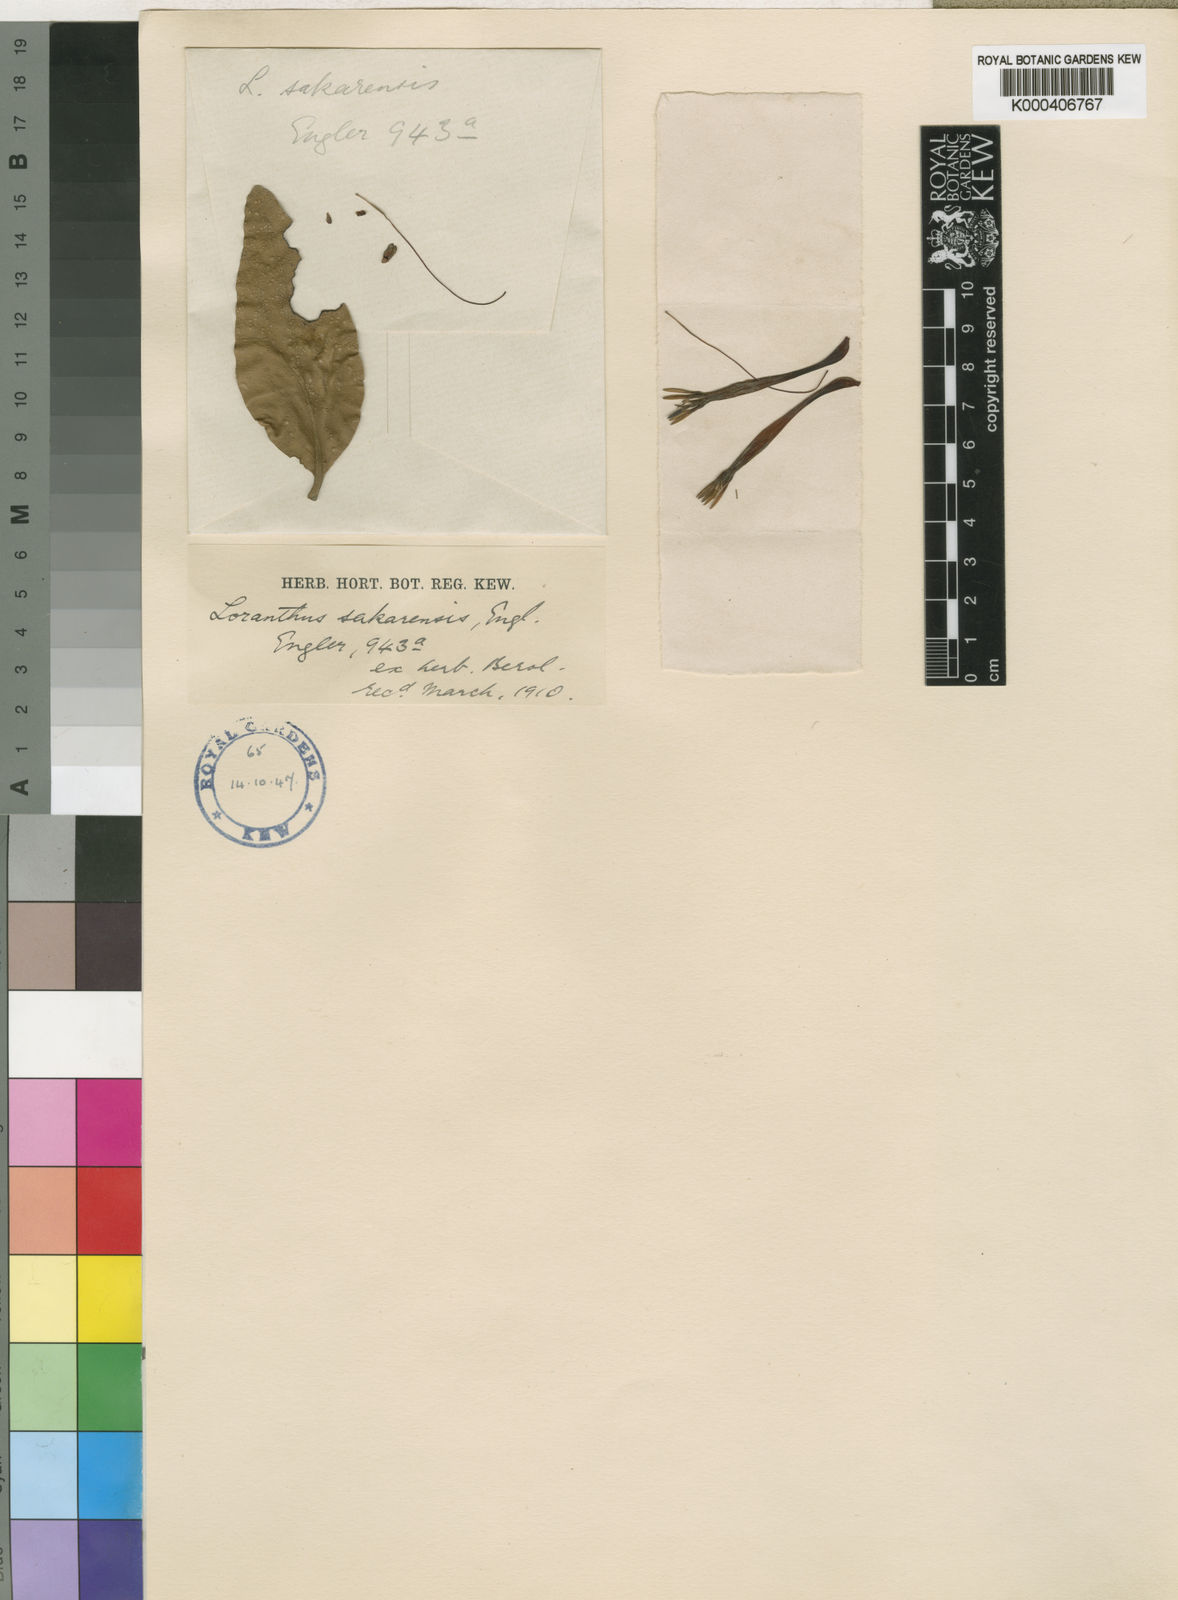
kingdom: Plantae
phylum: Tracheophyta
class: Magnoliopsida
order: Santalales
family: Loranthaceae
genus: Agelanthus
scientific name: Agelanthus tanganyikae
